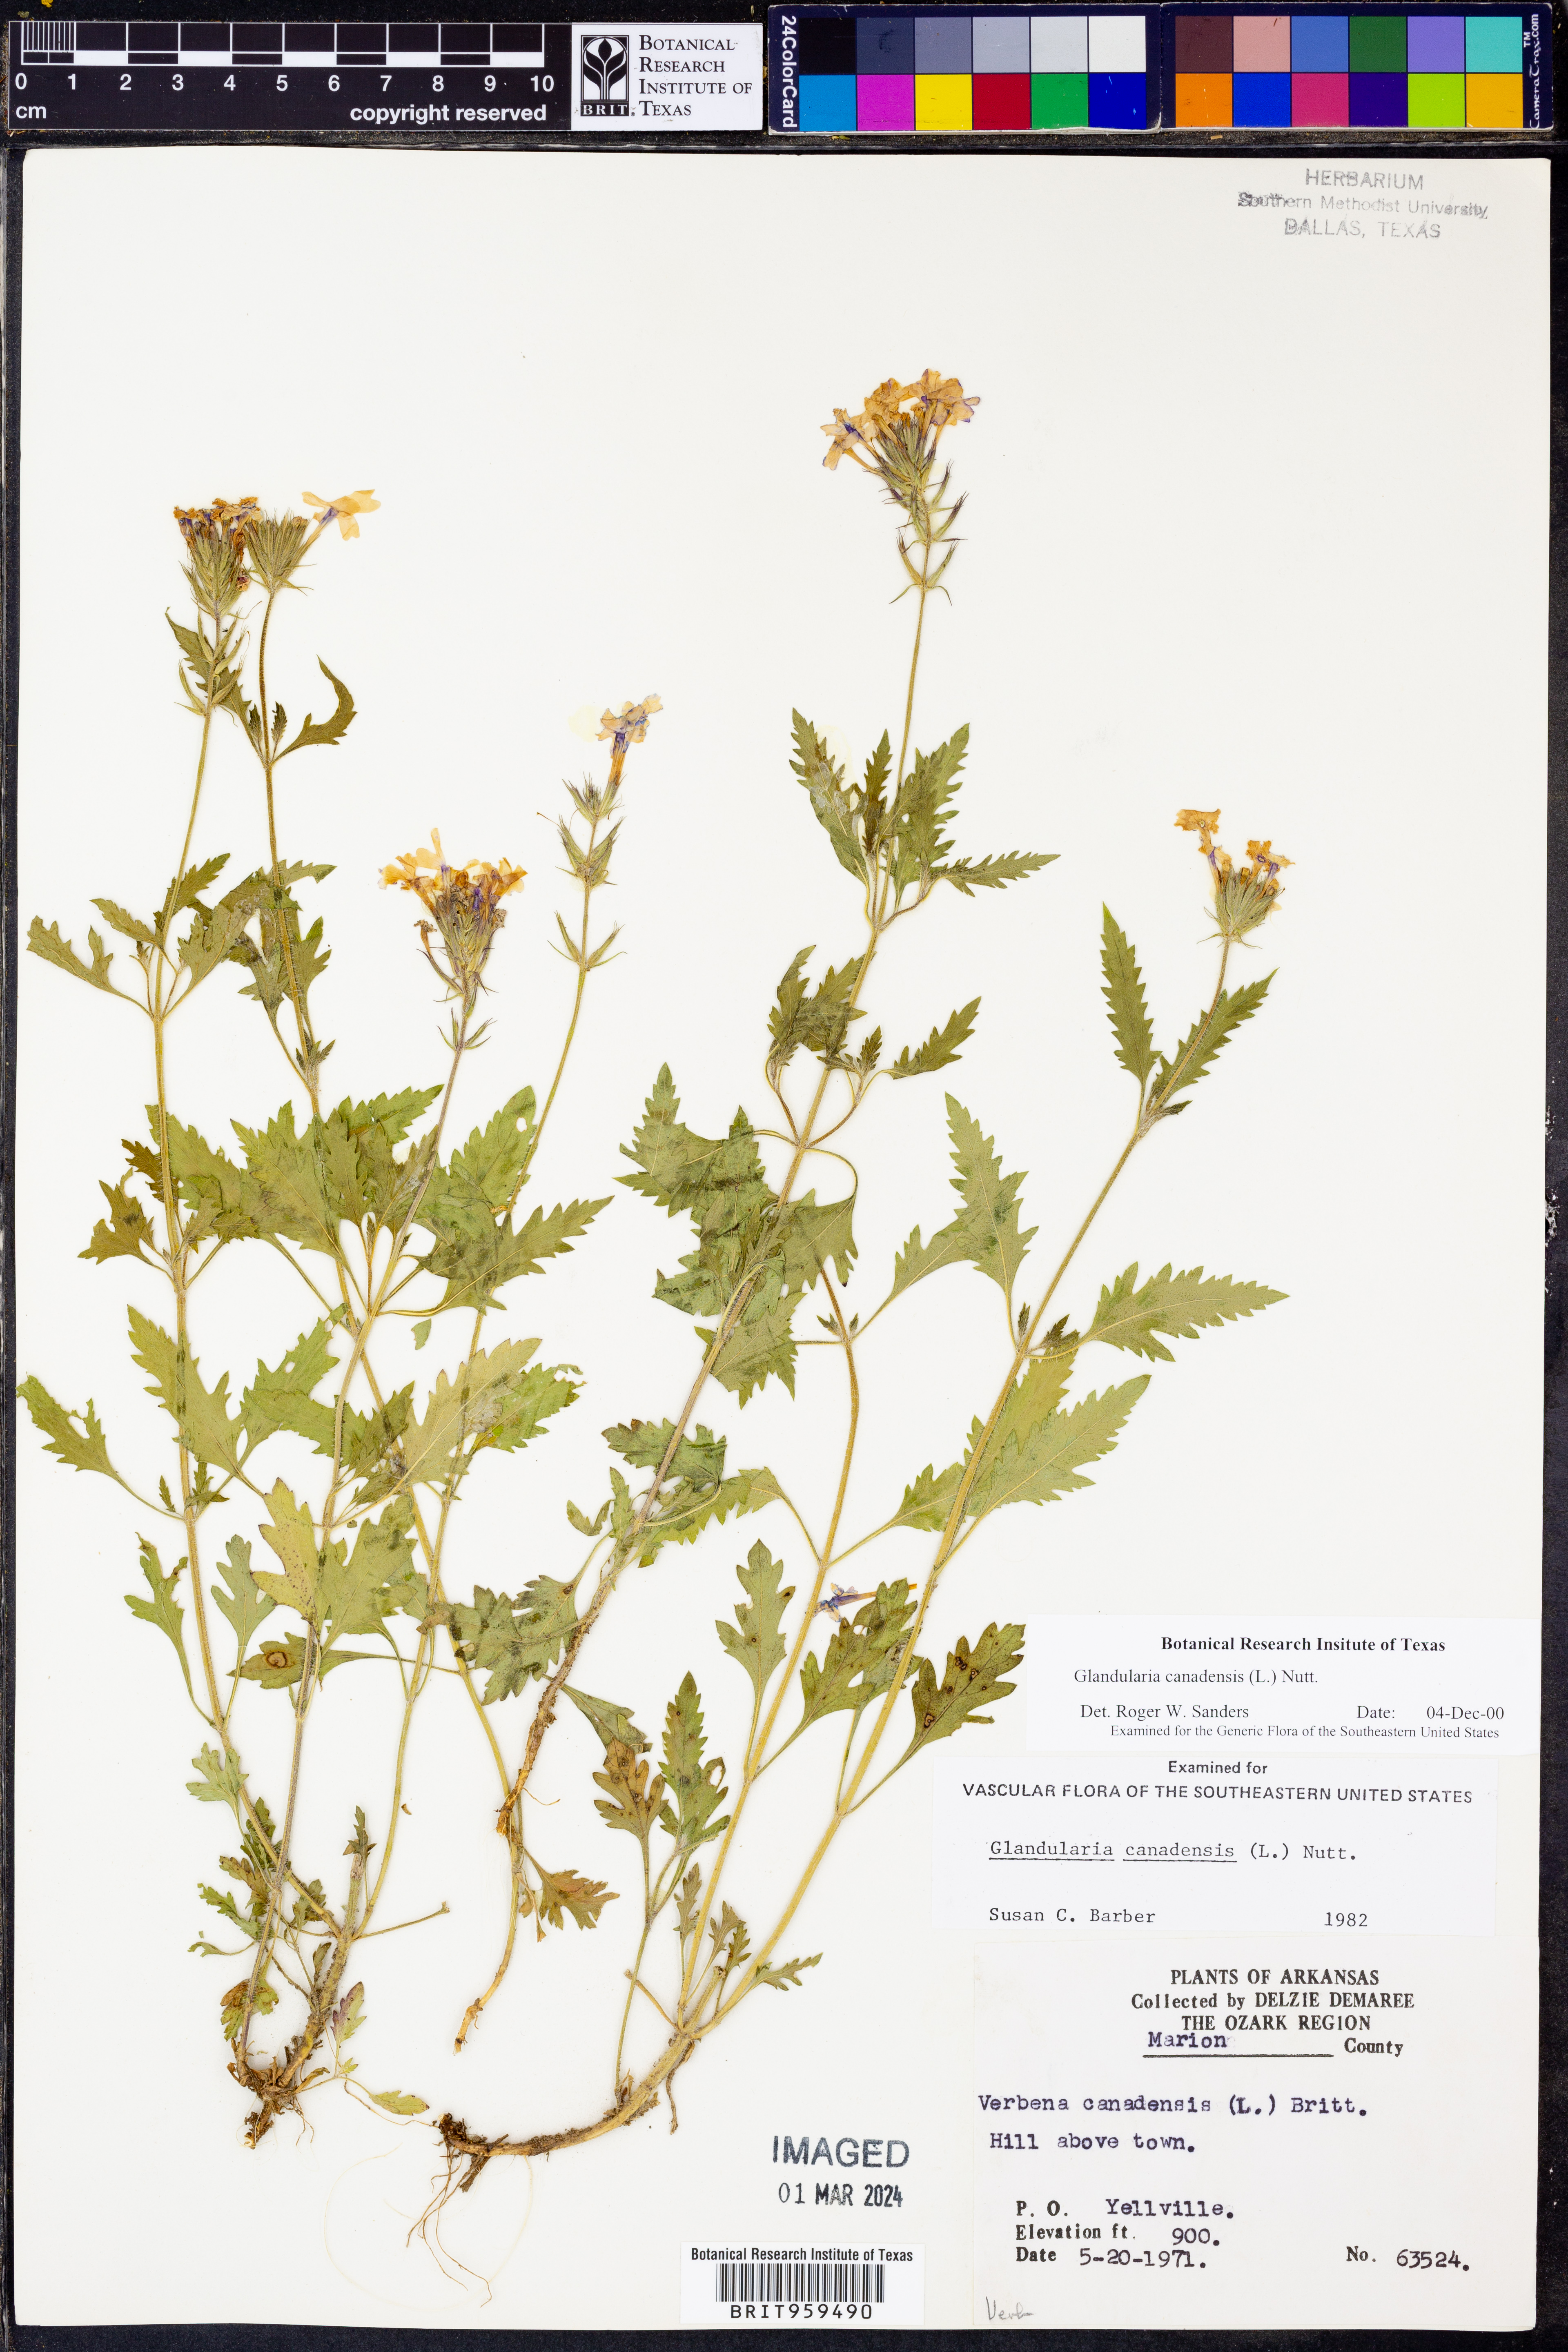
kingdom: Plantae
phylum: Tracheophyta
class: Magnoliopsida
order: Lamiales
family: Verbenaceae
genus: Verbena
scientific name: Verbena canadensis
